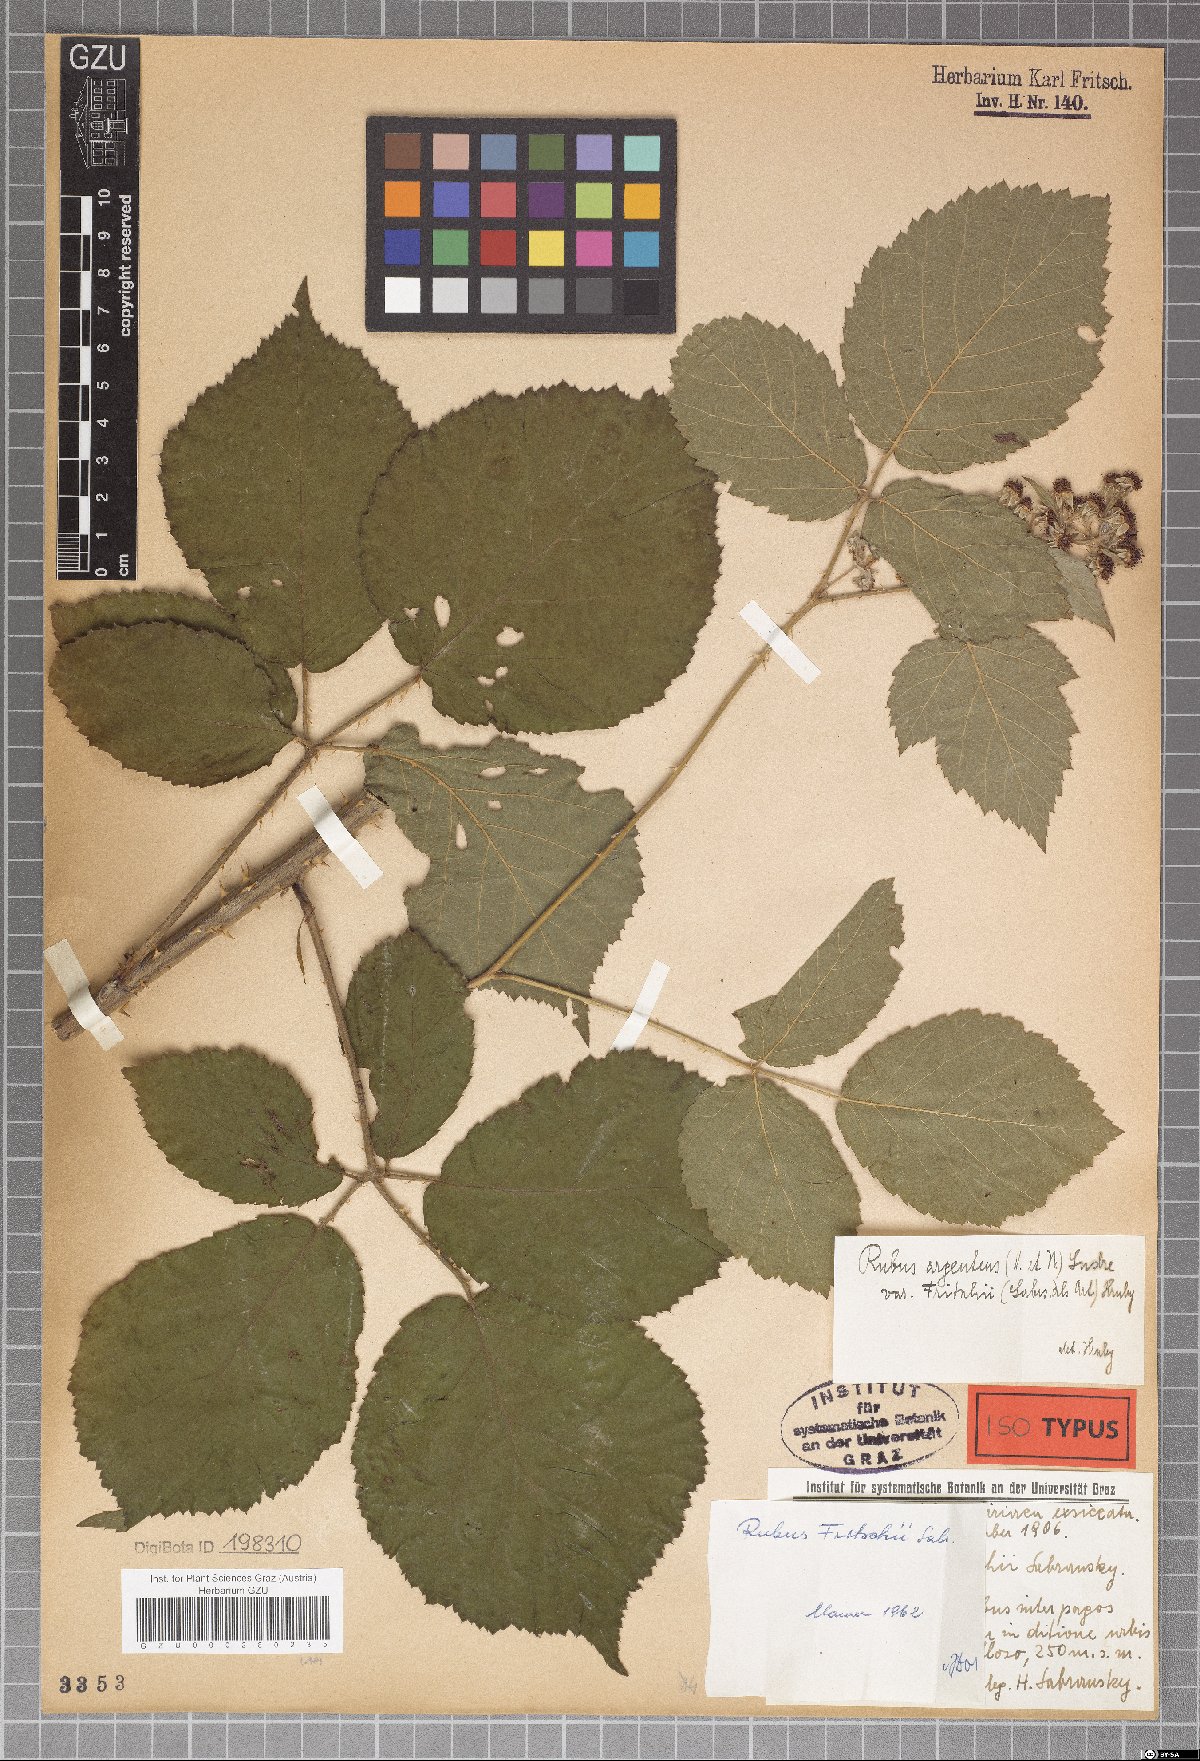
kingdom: Plantae
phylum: Tracheophyta
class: Magnoliopsida
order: Rosales
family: Rosaceae
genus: Rubus
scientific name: Rubus fritschii
